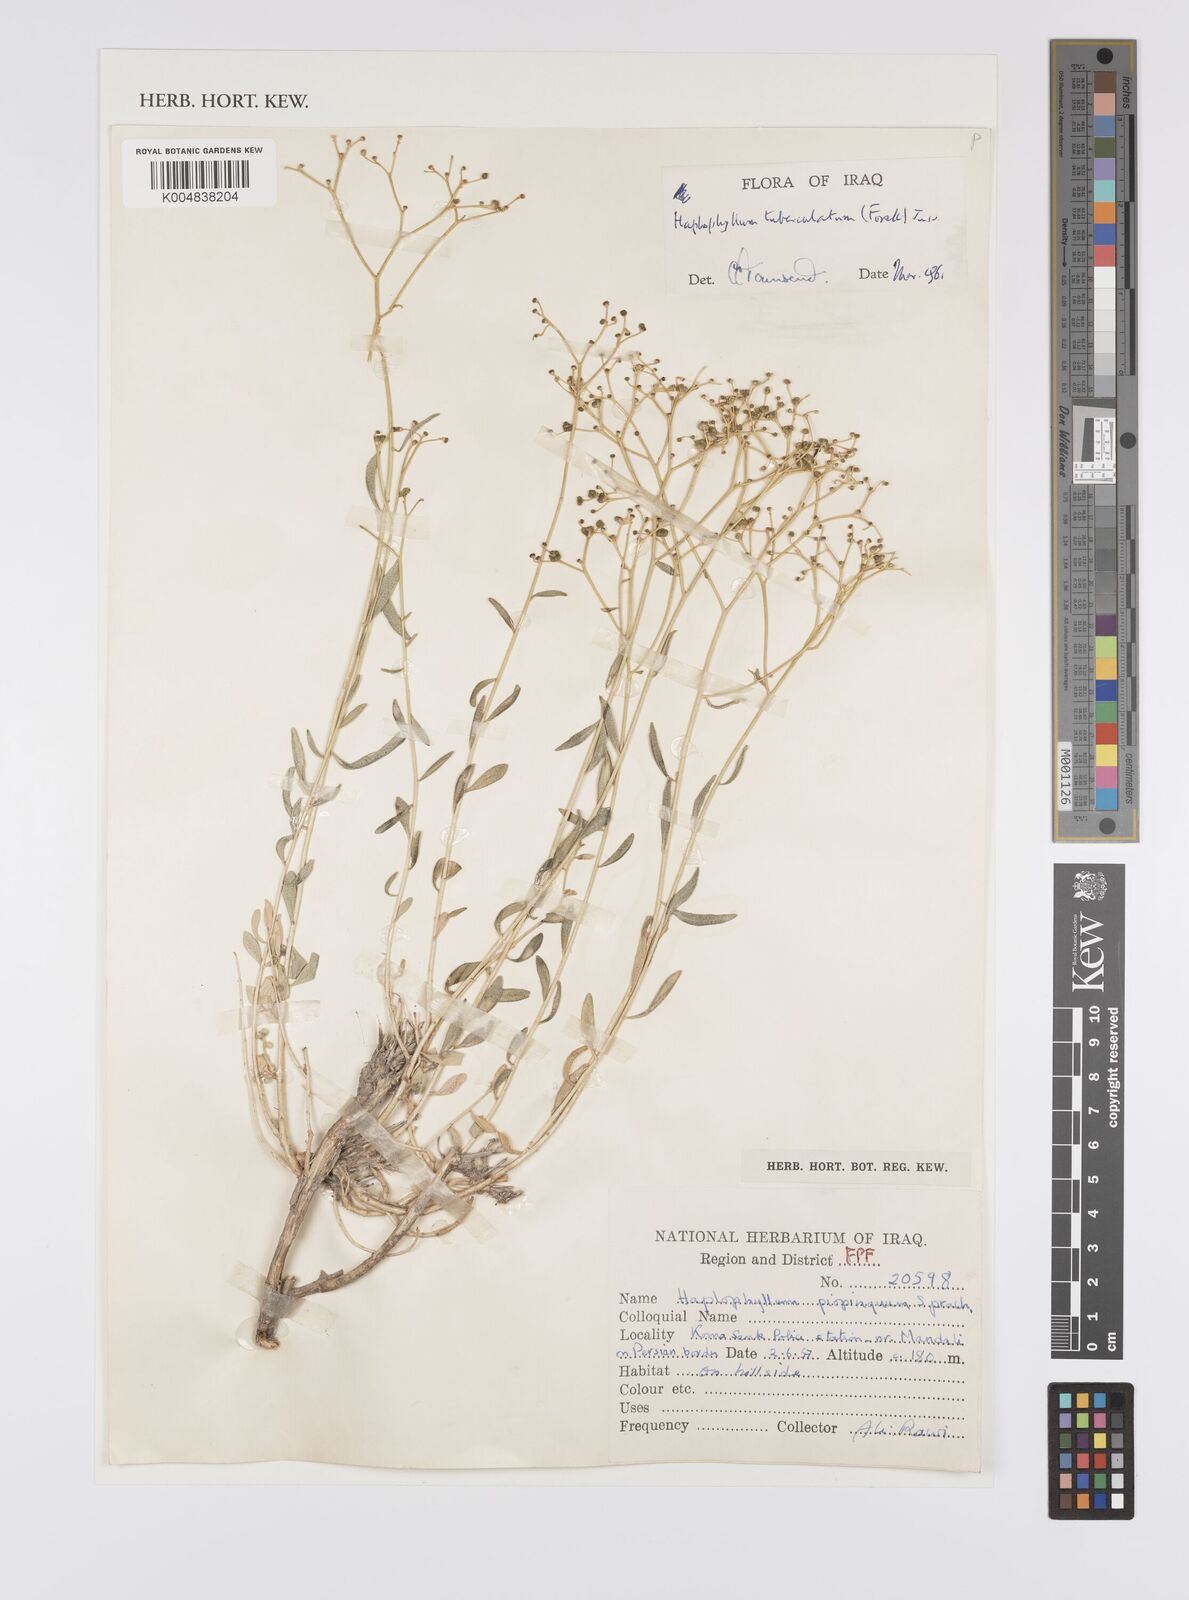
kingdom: Plantae
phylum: Tracheophyta
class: Magnoliopsida
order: Sapindales
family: Rutaceae
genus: Haplophyllum
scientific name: Haplophyllum tuberculatum
